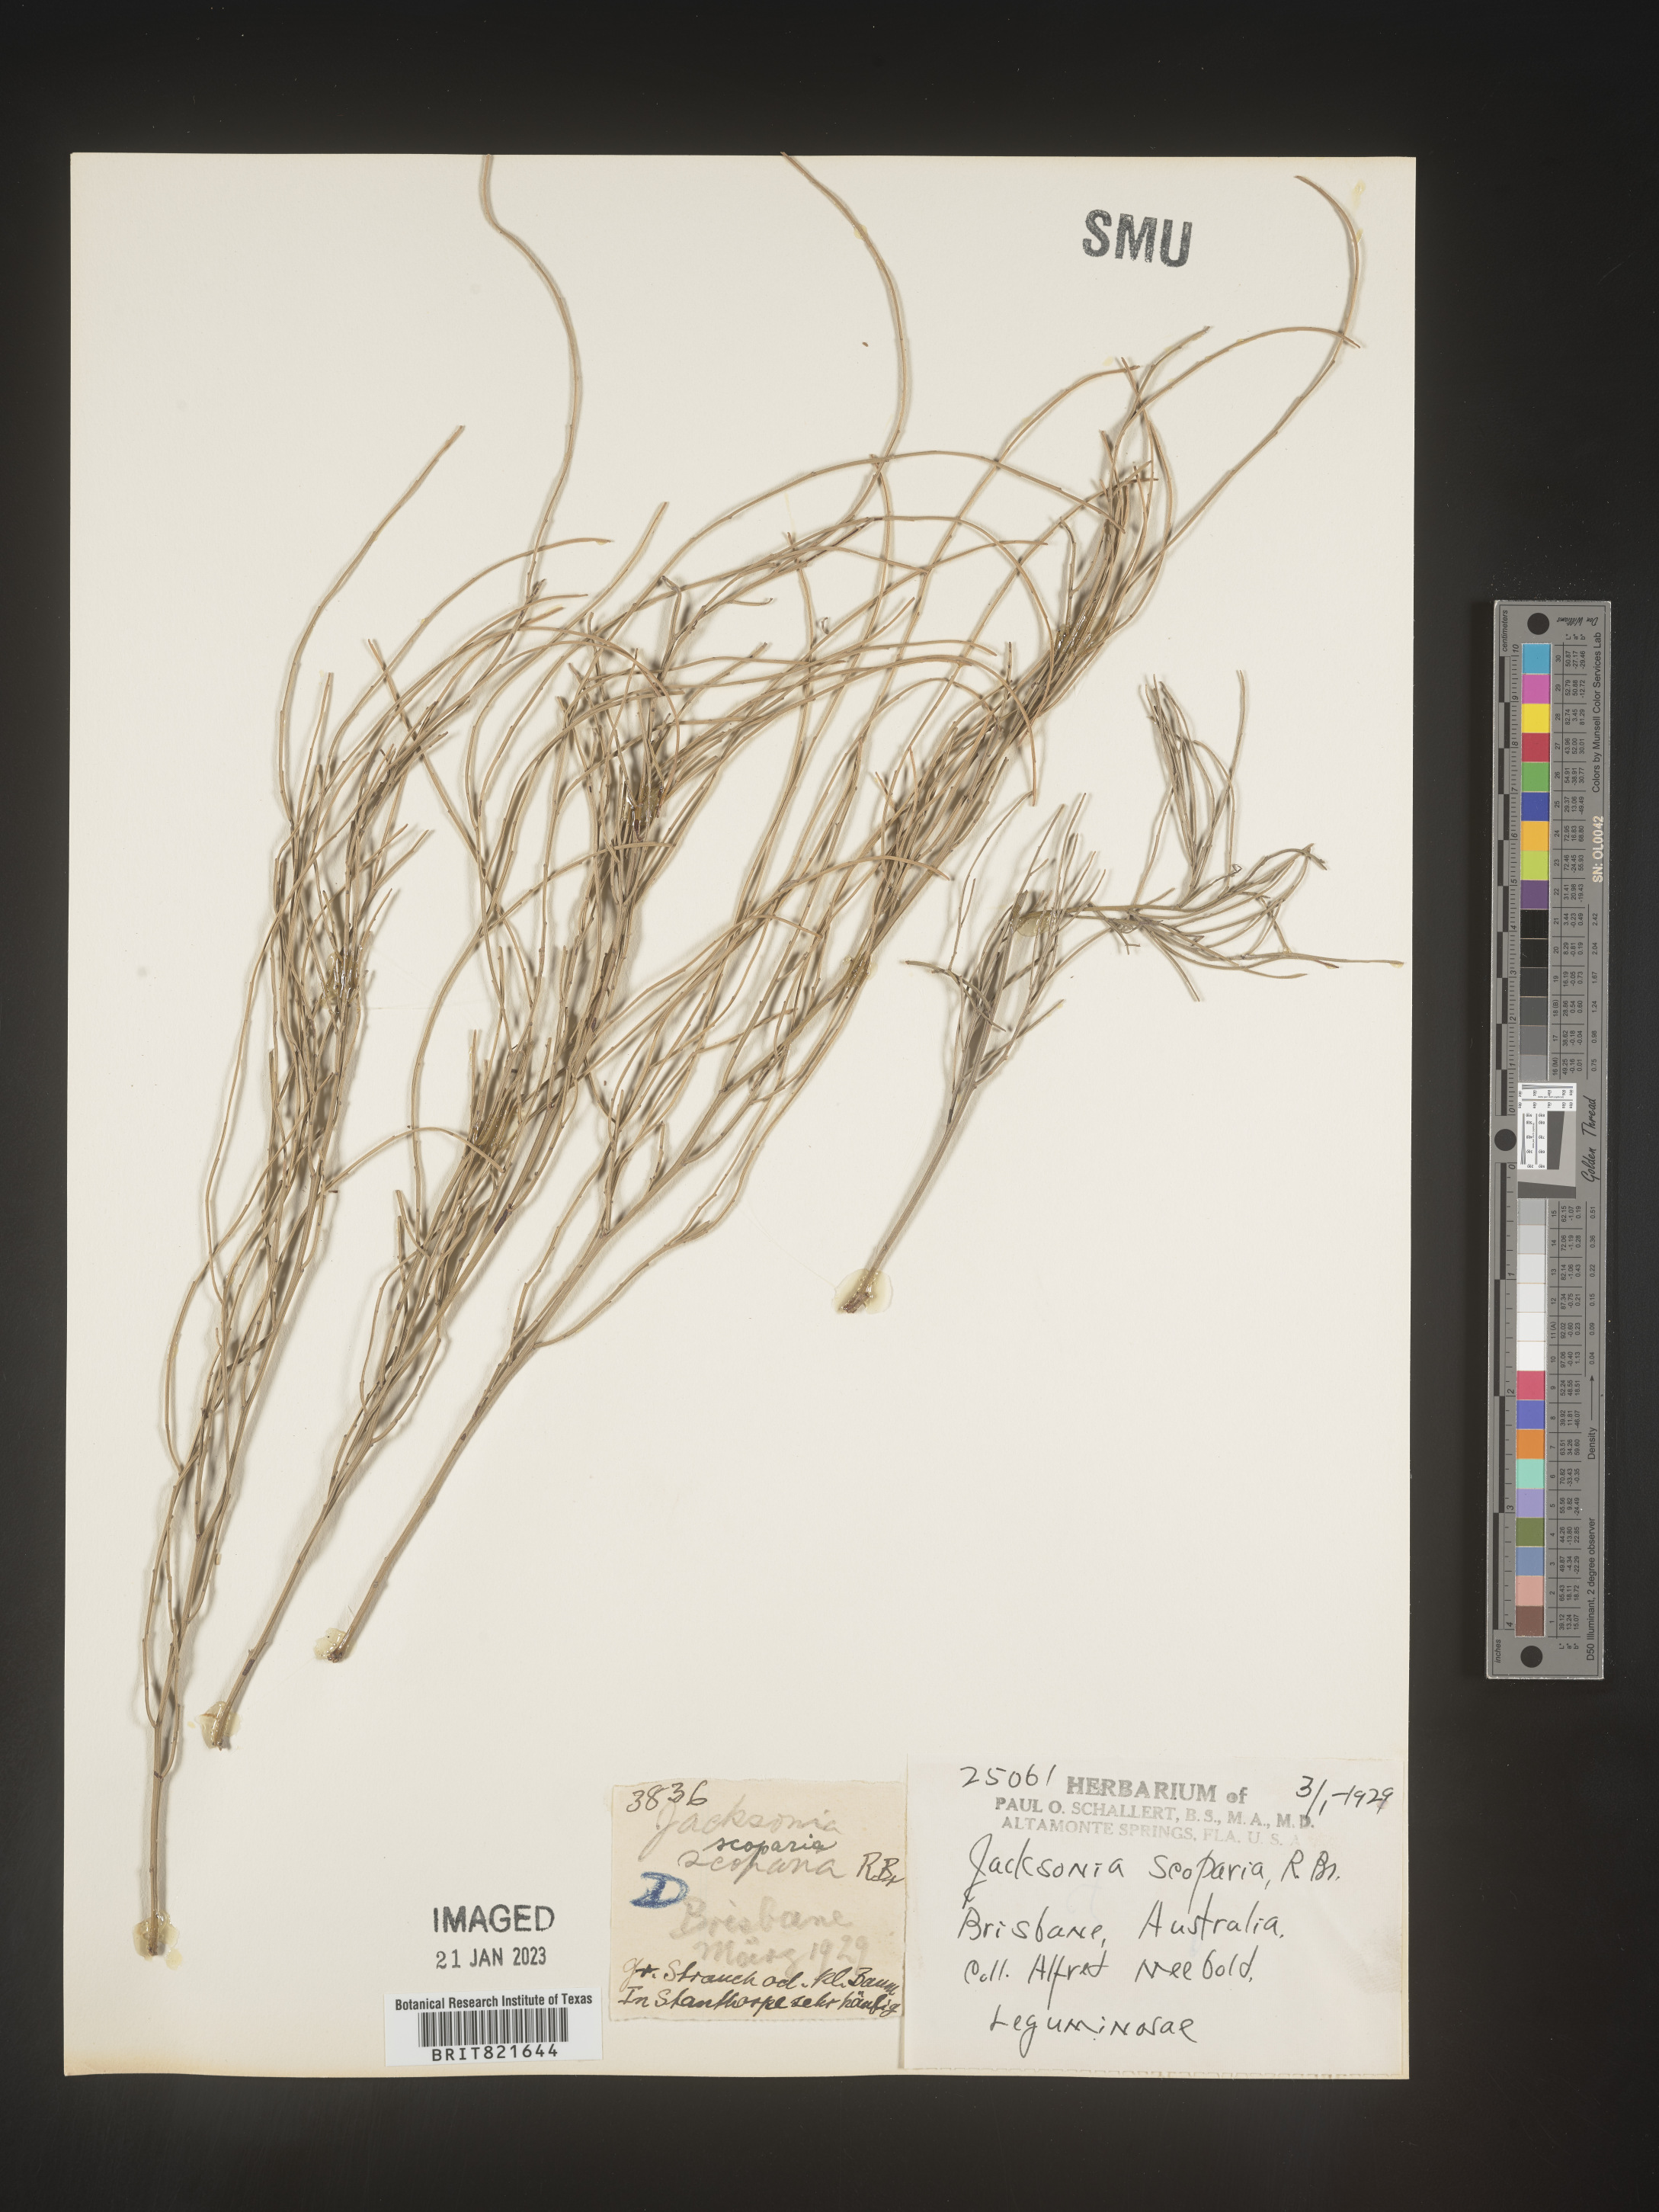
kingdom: Plantae
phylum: Tracheophyta
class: Magnoliopsida
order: Fabales
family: Fabaceae
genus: Jacksonia
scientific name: Jacksonia
